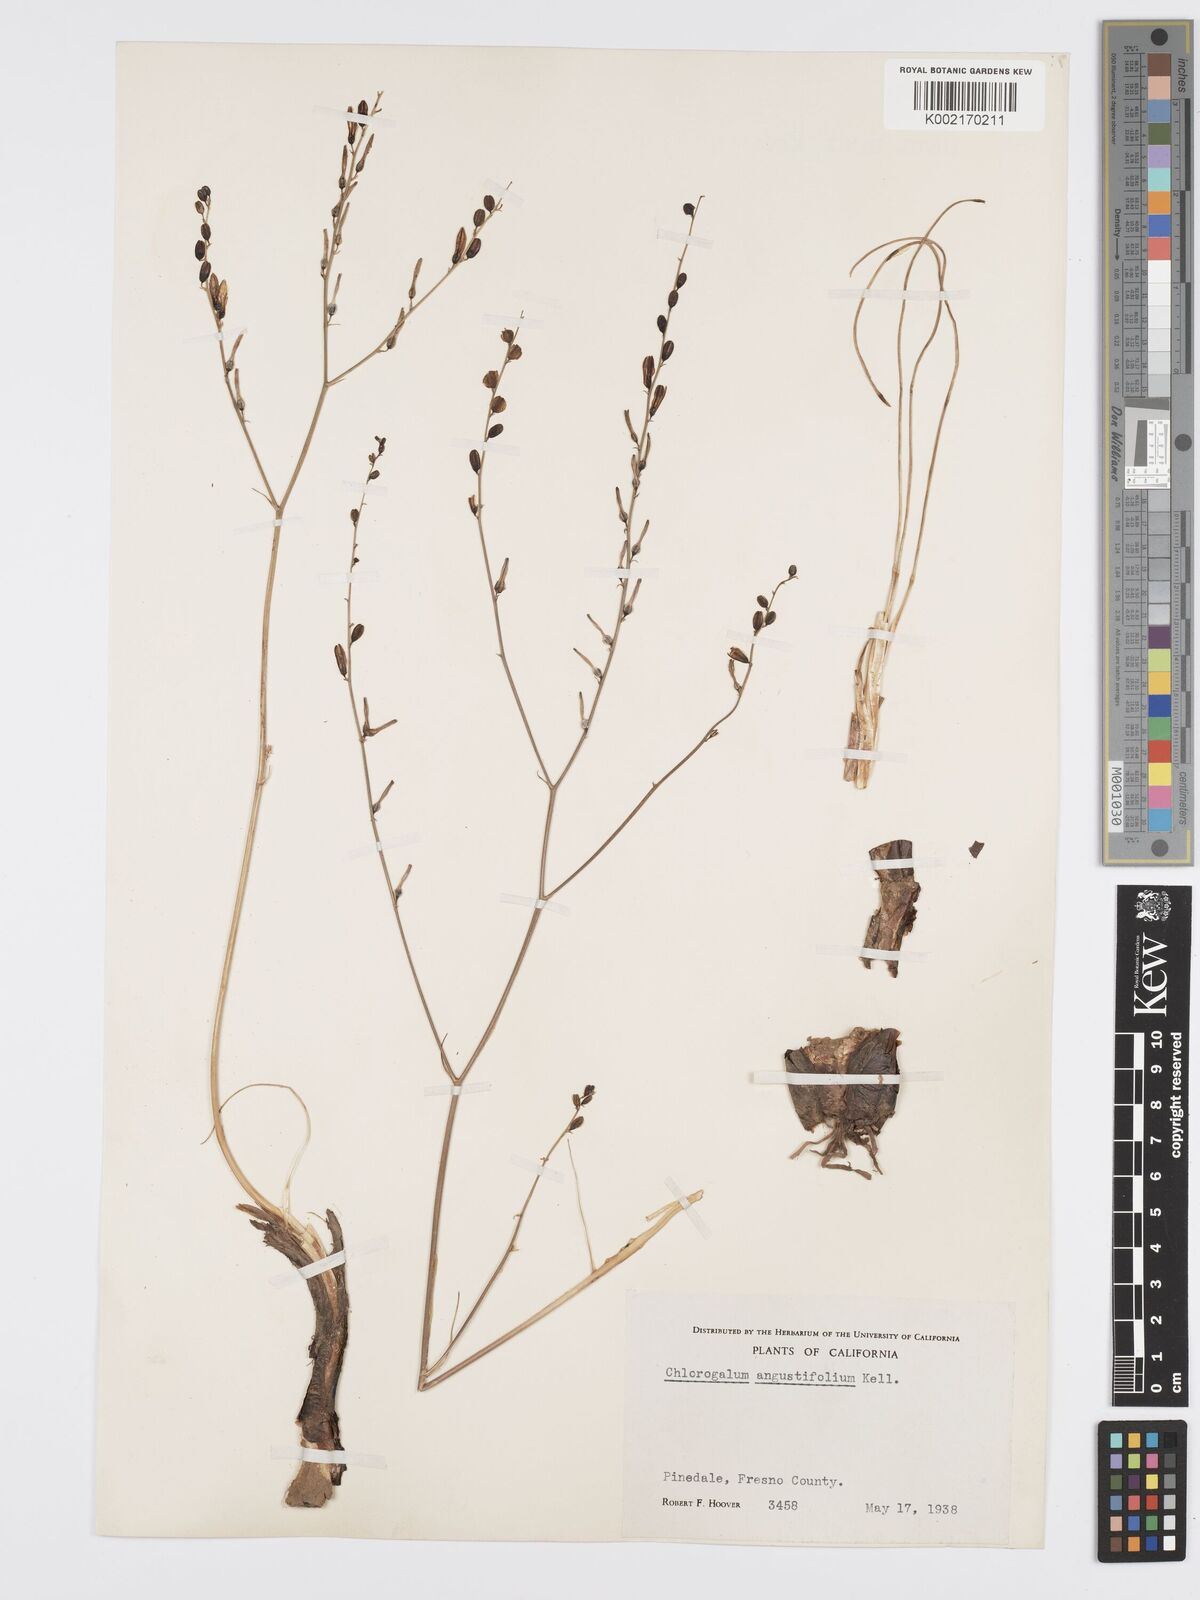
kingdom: Plantae
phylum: Tracheophyta
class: Liliopsida
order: Asparagales
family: Asparagaceae
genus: Chlorogalum
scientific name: Chlorogalum angustifolium
